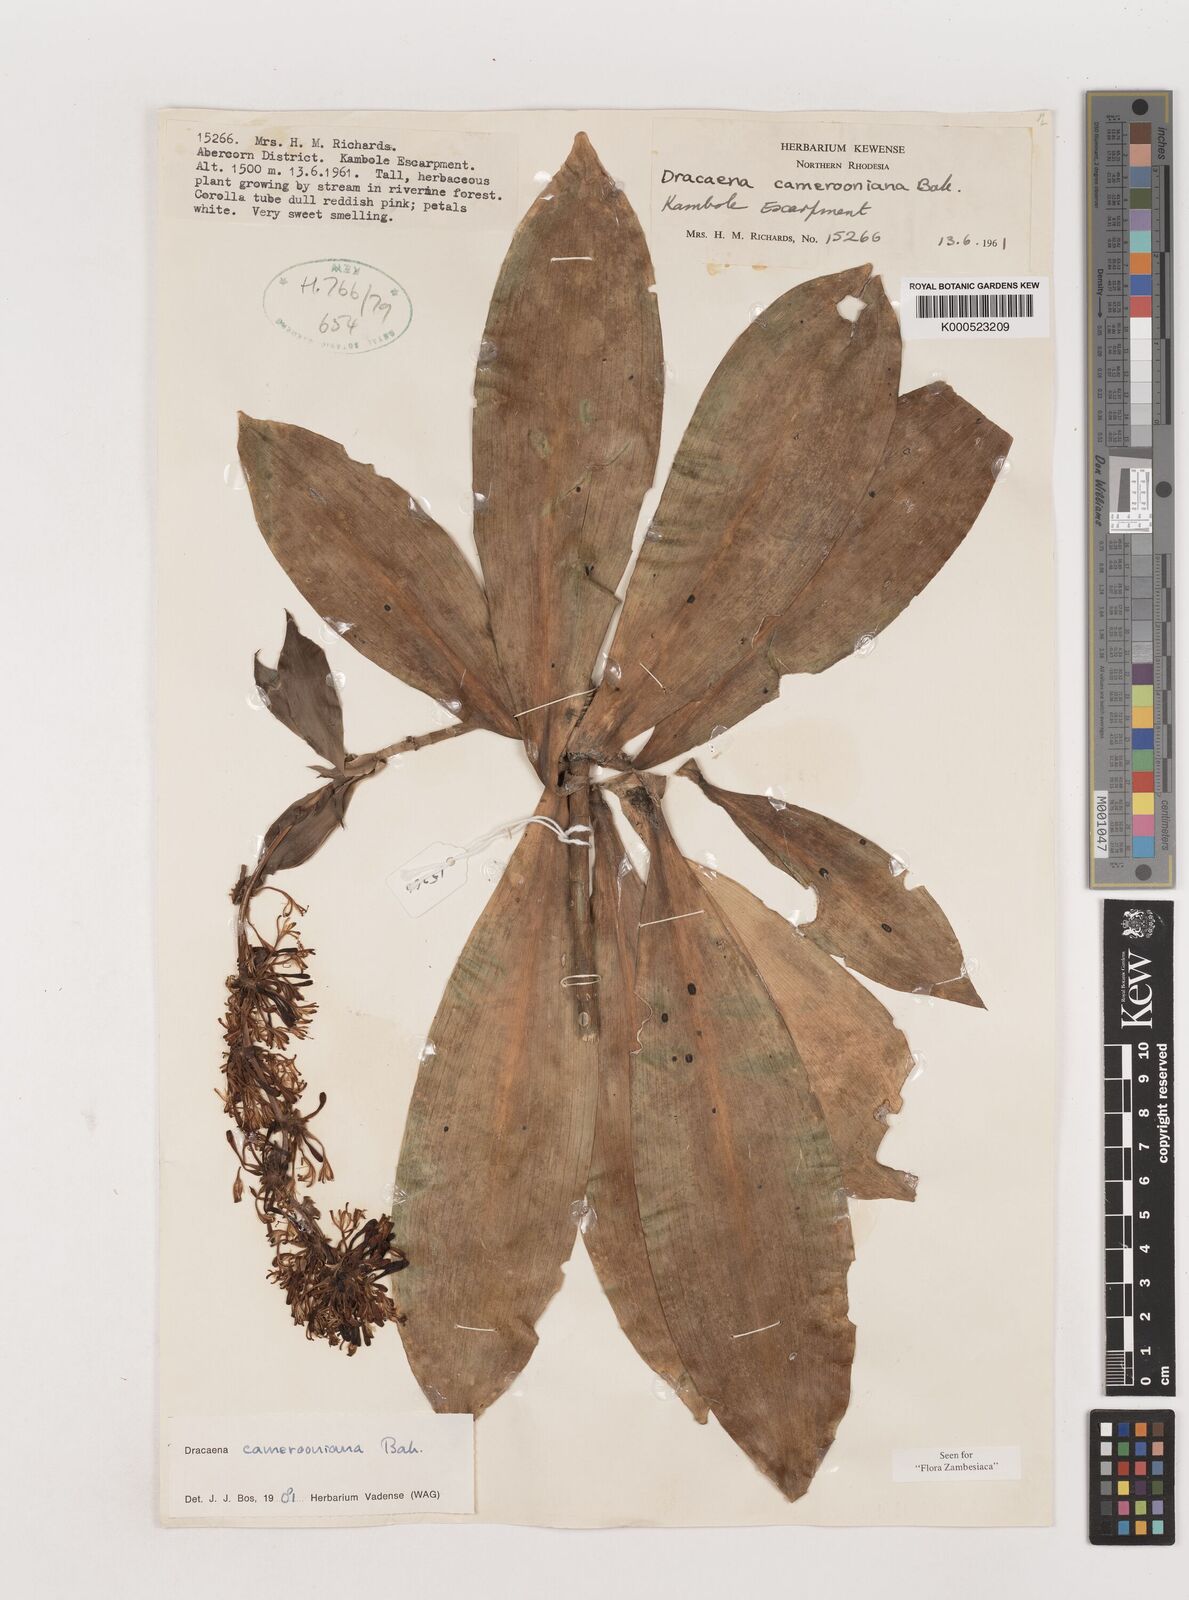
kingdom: Plantae
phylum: Tracheophyta
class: Liliopsida
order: Asparagales
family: Asparagaceae
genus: Dracaena
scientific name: Dracaena camerooniana
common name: Dragon tree
